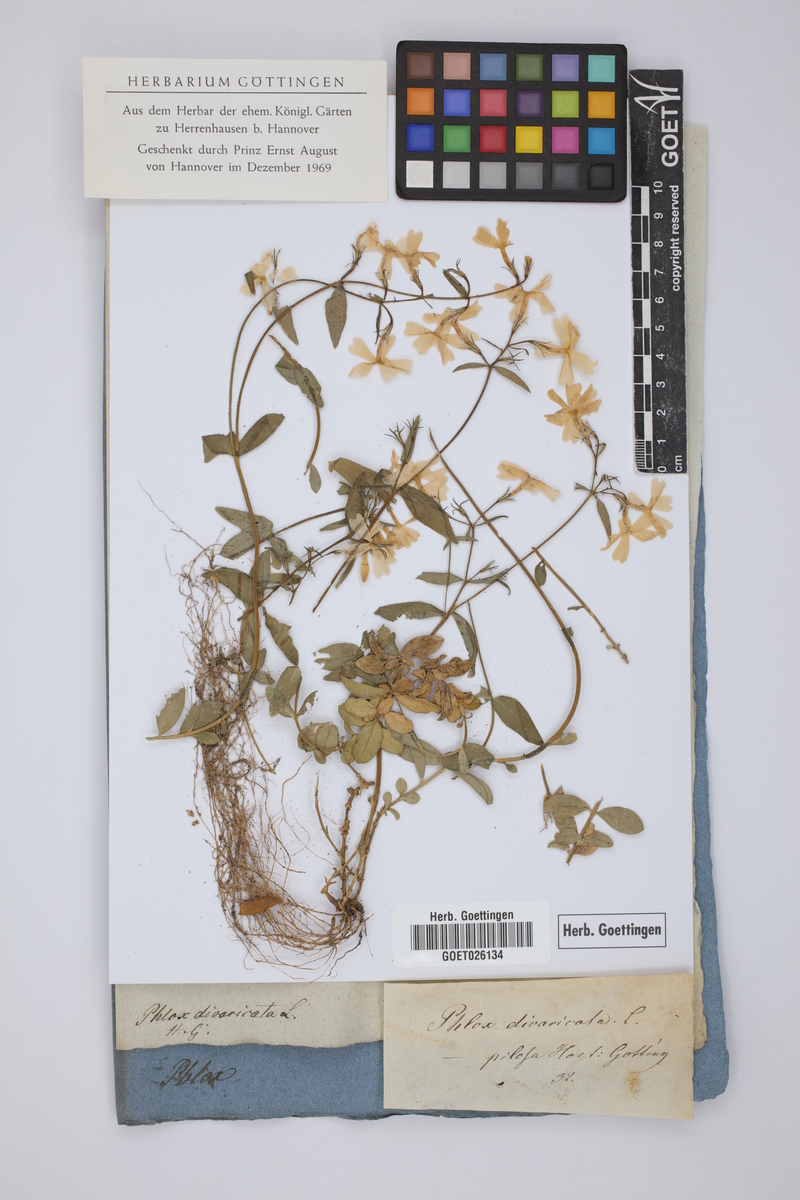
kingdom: Plantae
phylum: Tracheophyta
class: Magnoliopsida
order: Ericales
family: Polemoniaceae
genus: Phlox
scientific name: Phlox divaricata
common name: Blue phlox
